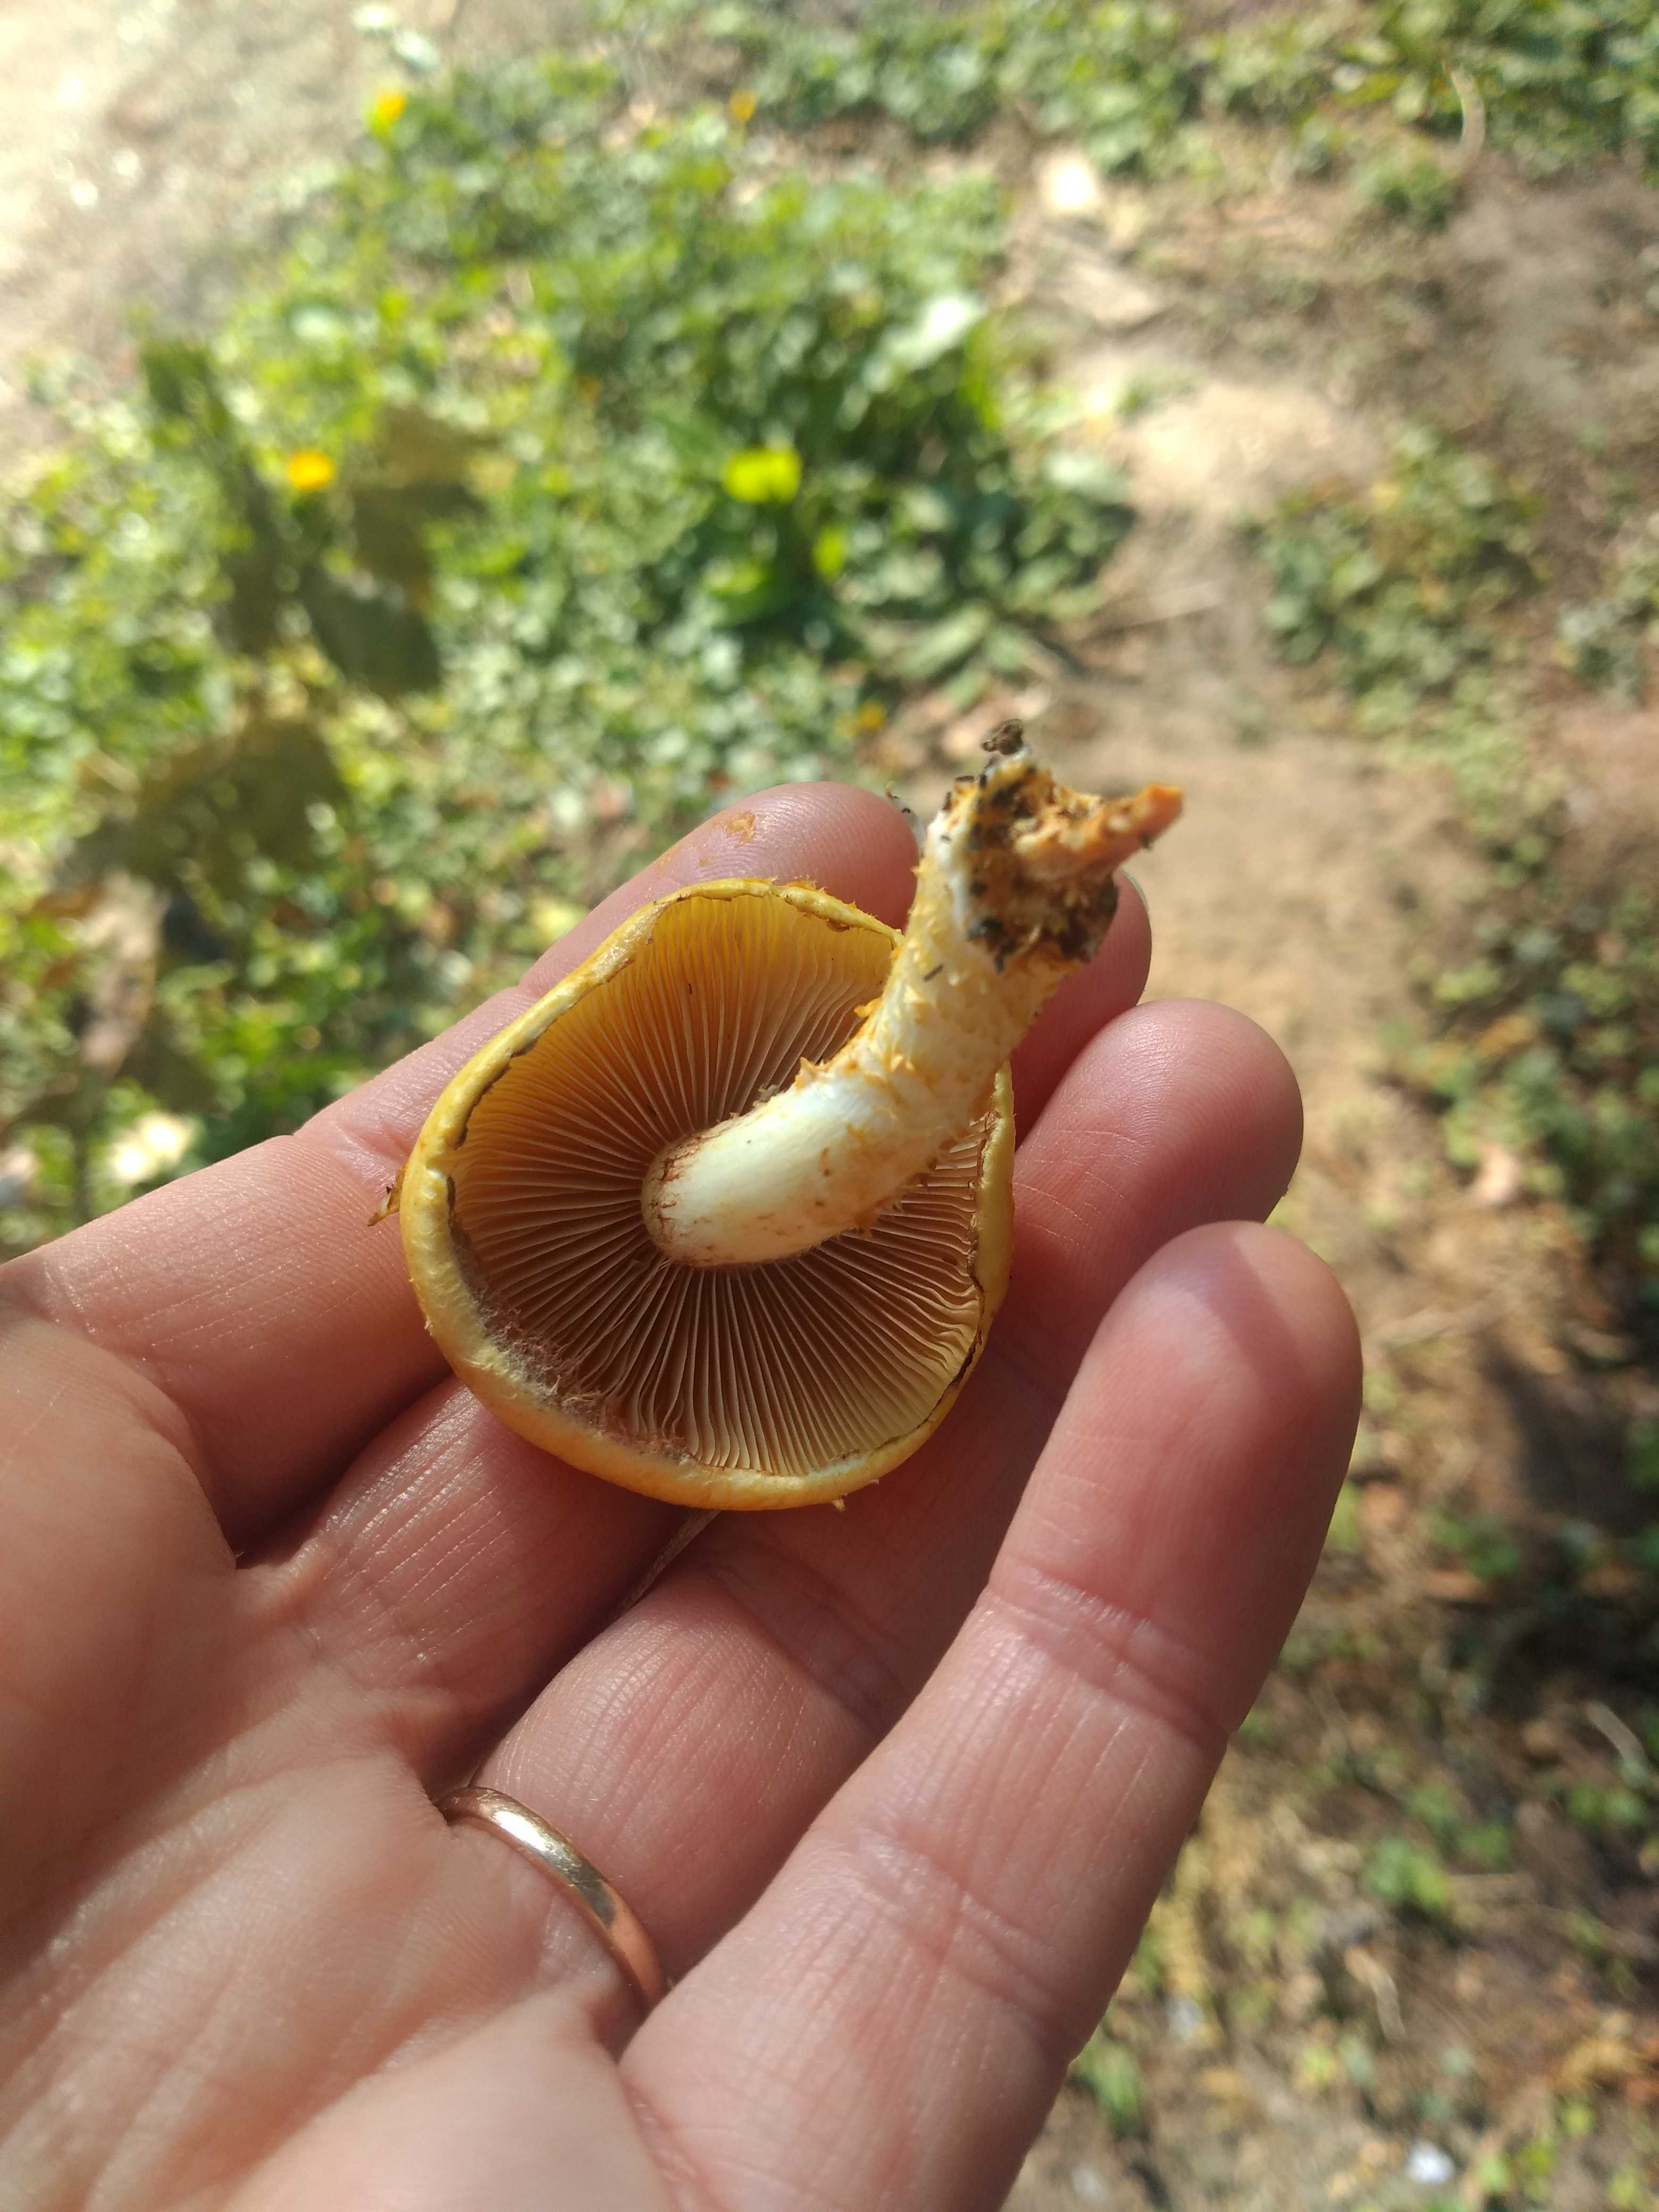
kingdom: Fungi
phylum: Basidiomycota
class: Agaricomycetes
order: Agaricales
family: Strophariaceae
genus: Pholiota
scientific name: Pholiota adiposa
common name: højtsiddende skælhat
